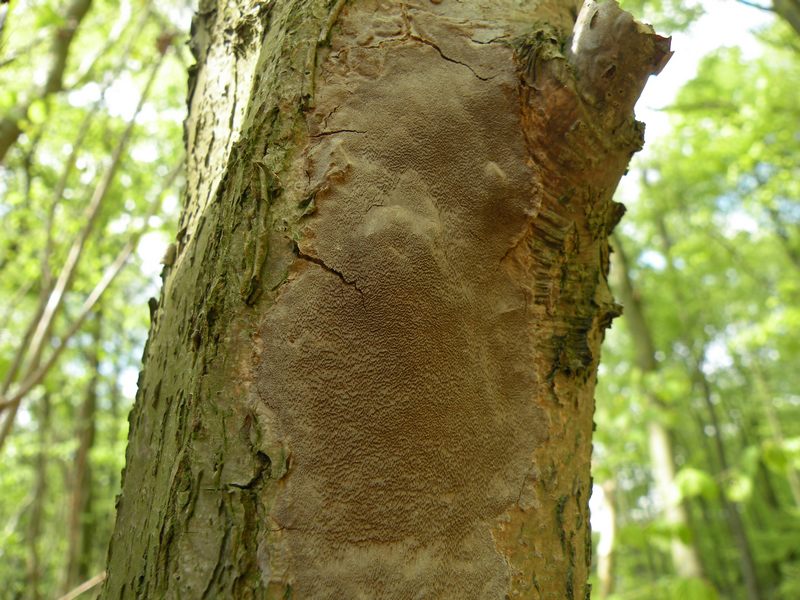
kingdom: Fungi
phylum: Basidiomycota
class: Agaricomycetes
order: Hymenochaetales
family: Hymenochaetaceae
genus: Fomitiporia
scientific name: Fomitiporia punctata
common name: pude-ildporesvamp
